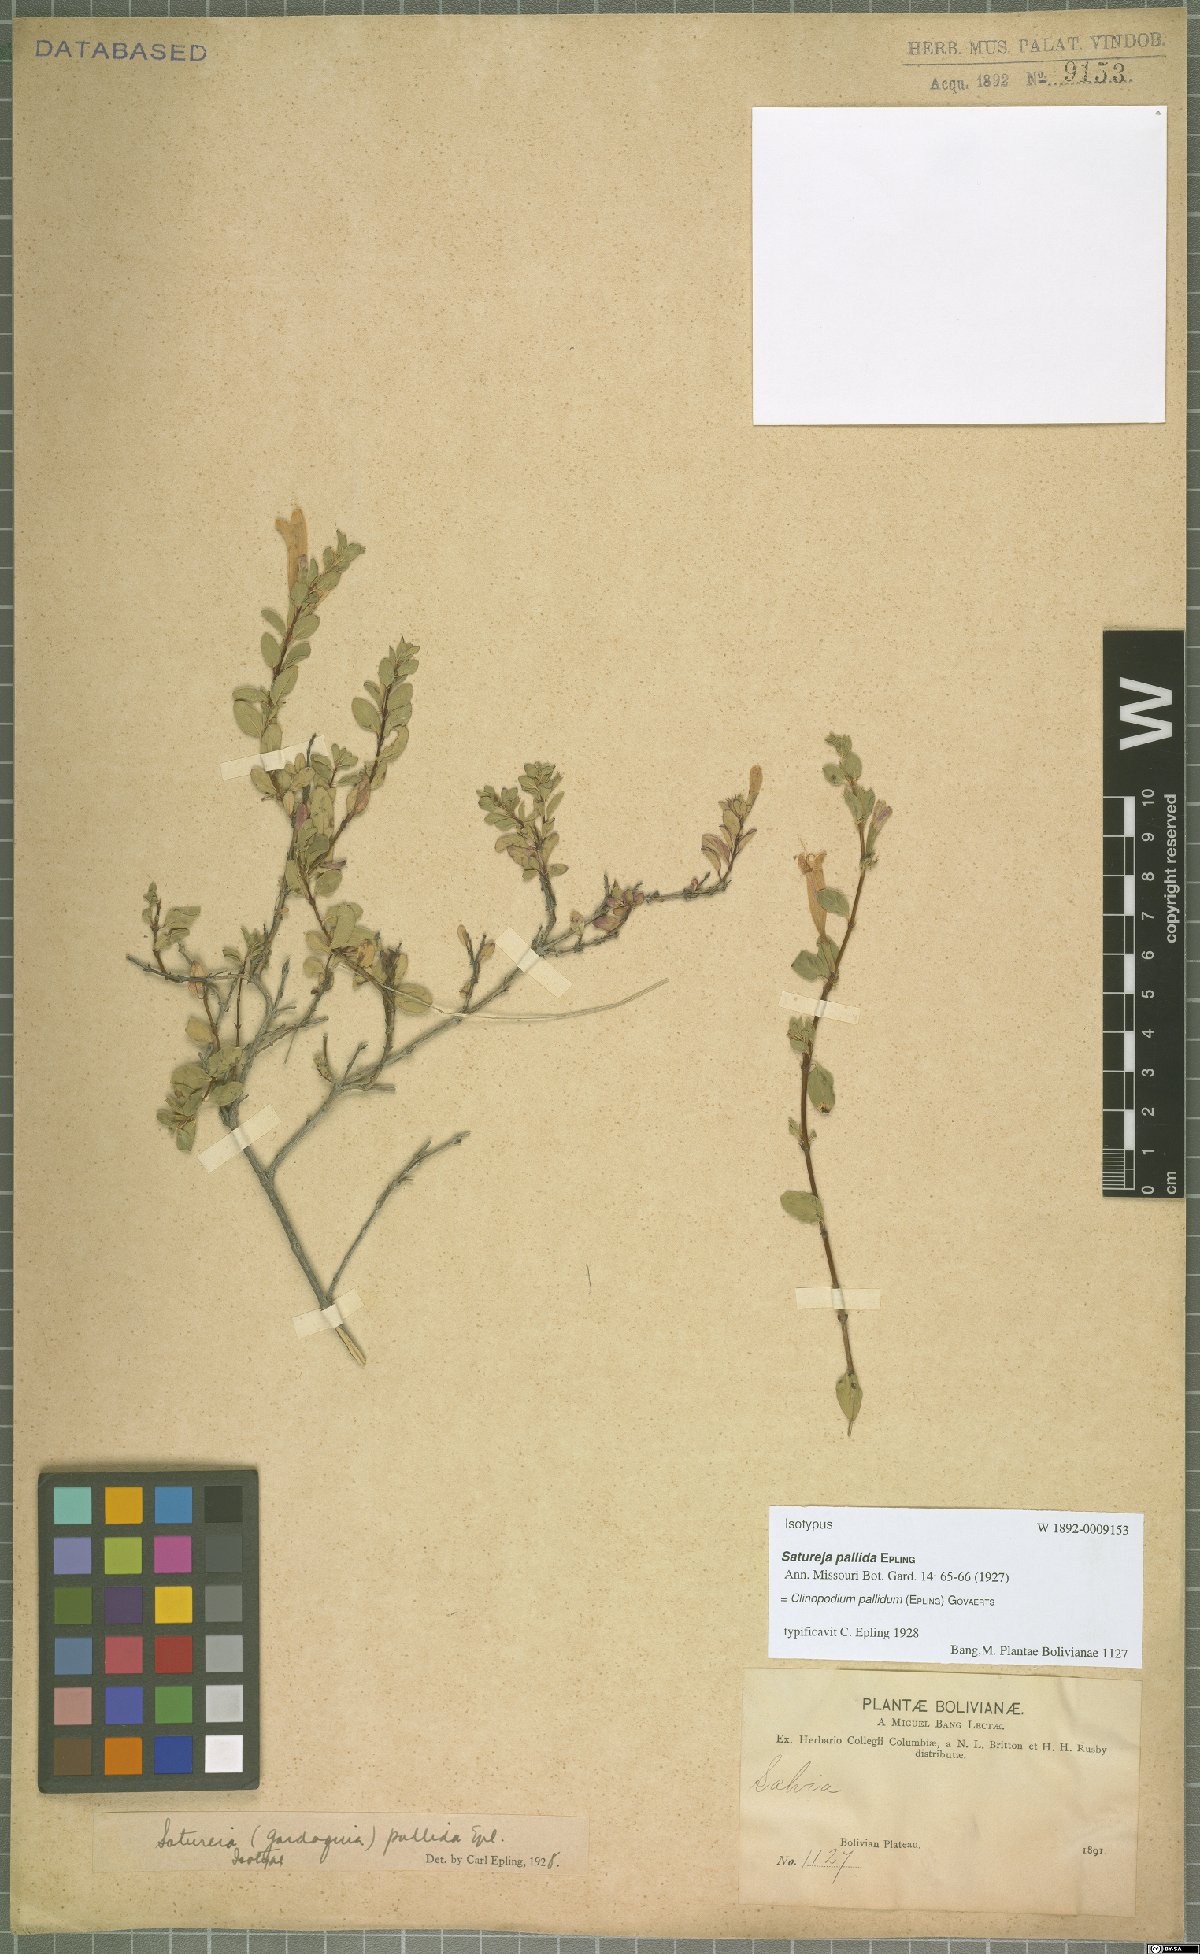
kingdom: Plantae
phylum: Tracheophyta
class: Magnoliopsida
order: Lamiales
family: Lamiaceae
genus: Clinopodium
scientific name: Clinopodium pallidum
